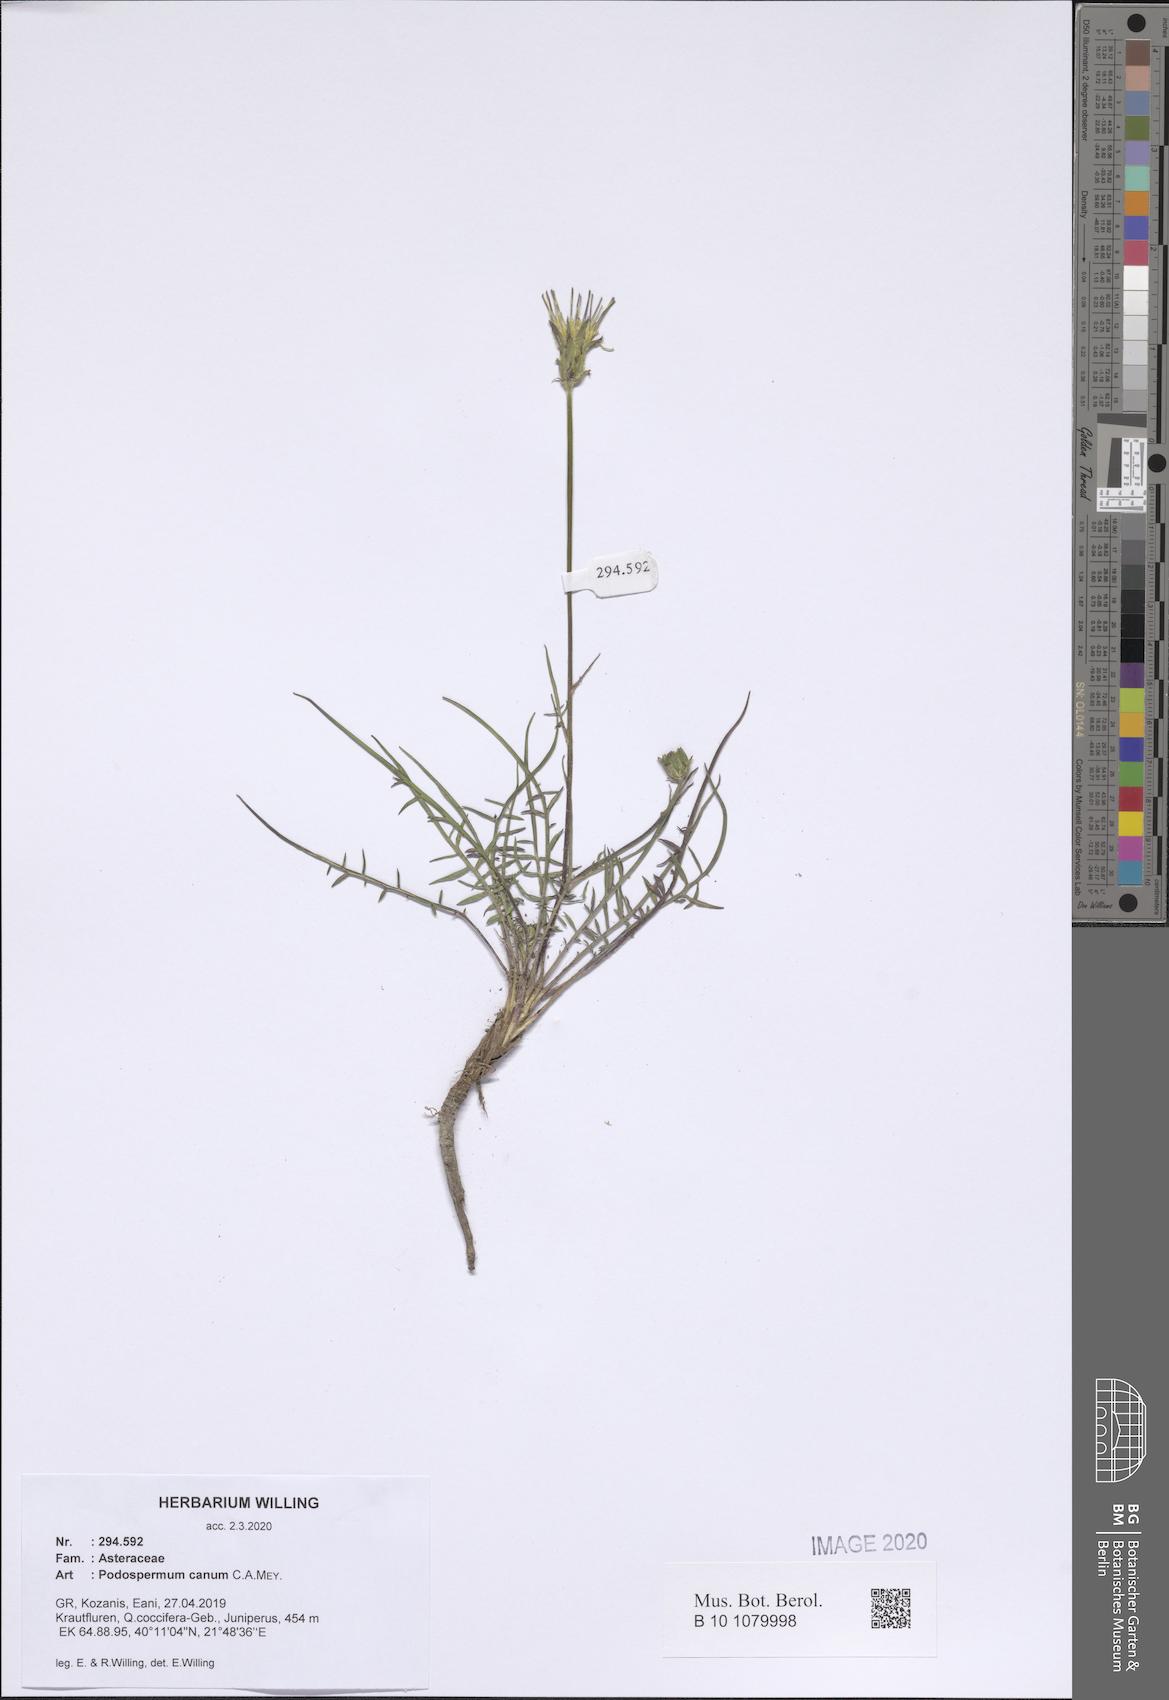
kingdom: Plantae
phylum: Tracheophyta
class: Magnoliopsida
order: Asterales
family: Asteraceae
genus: Scorzonera
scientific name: Scorzonera cana
